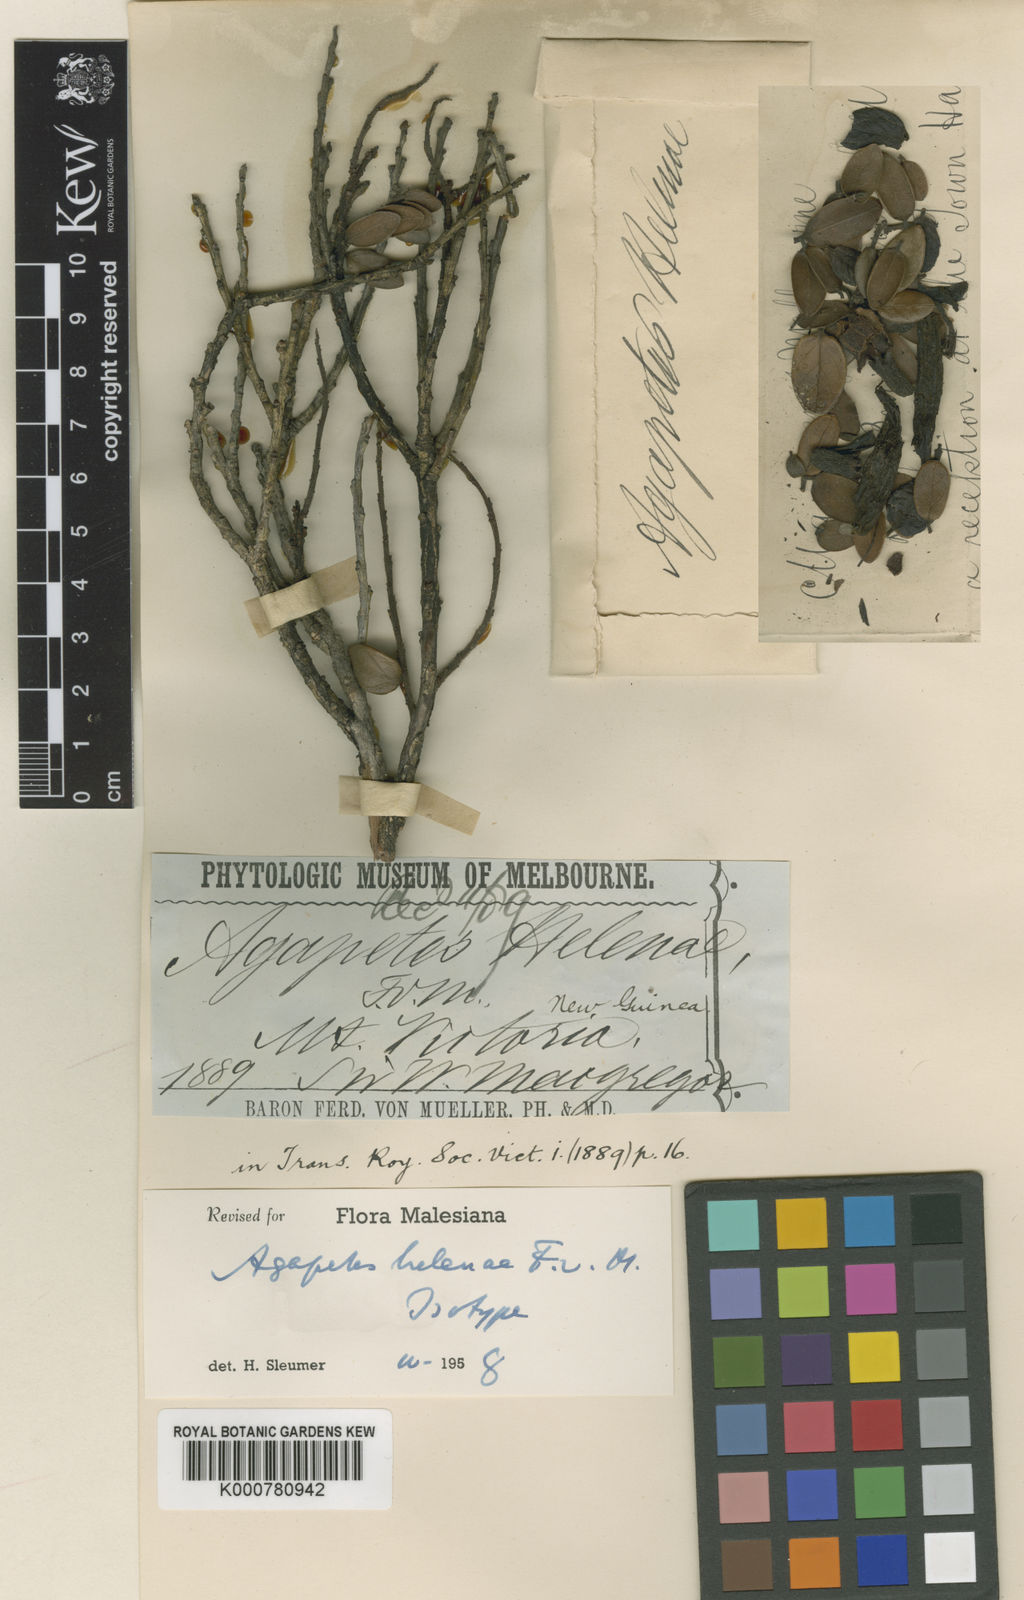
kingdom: Plantae
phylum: Tracheophyta
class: Magnoliopsida
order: Ericales
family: Ericaceae
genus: Paphia
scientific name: Paphia helenae
